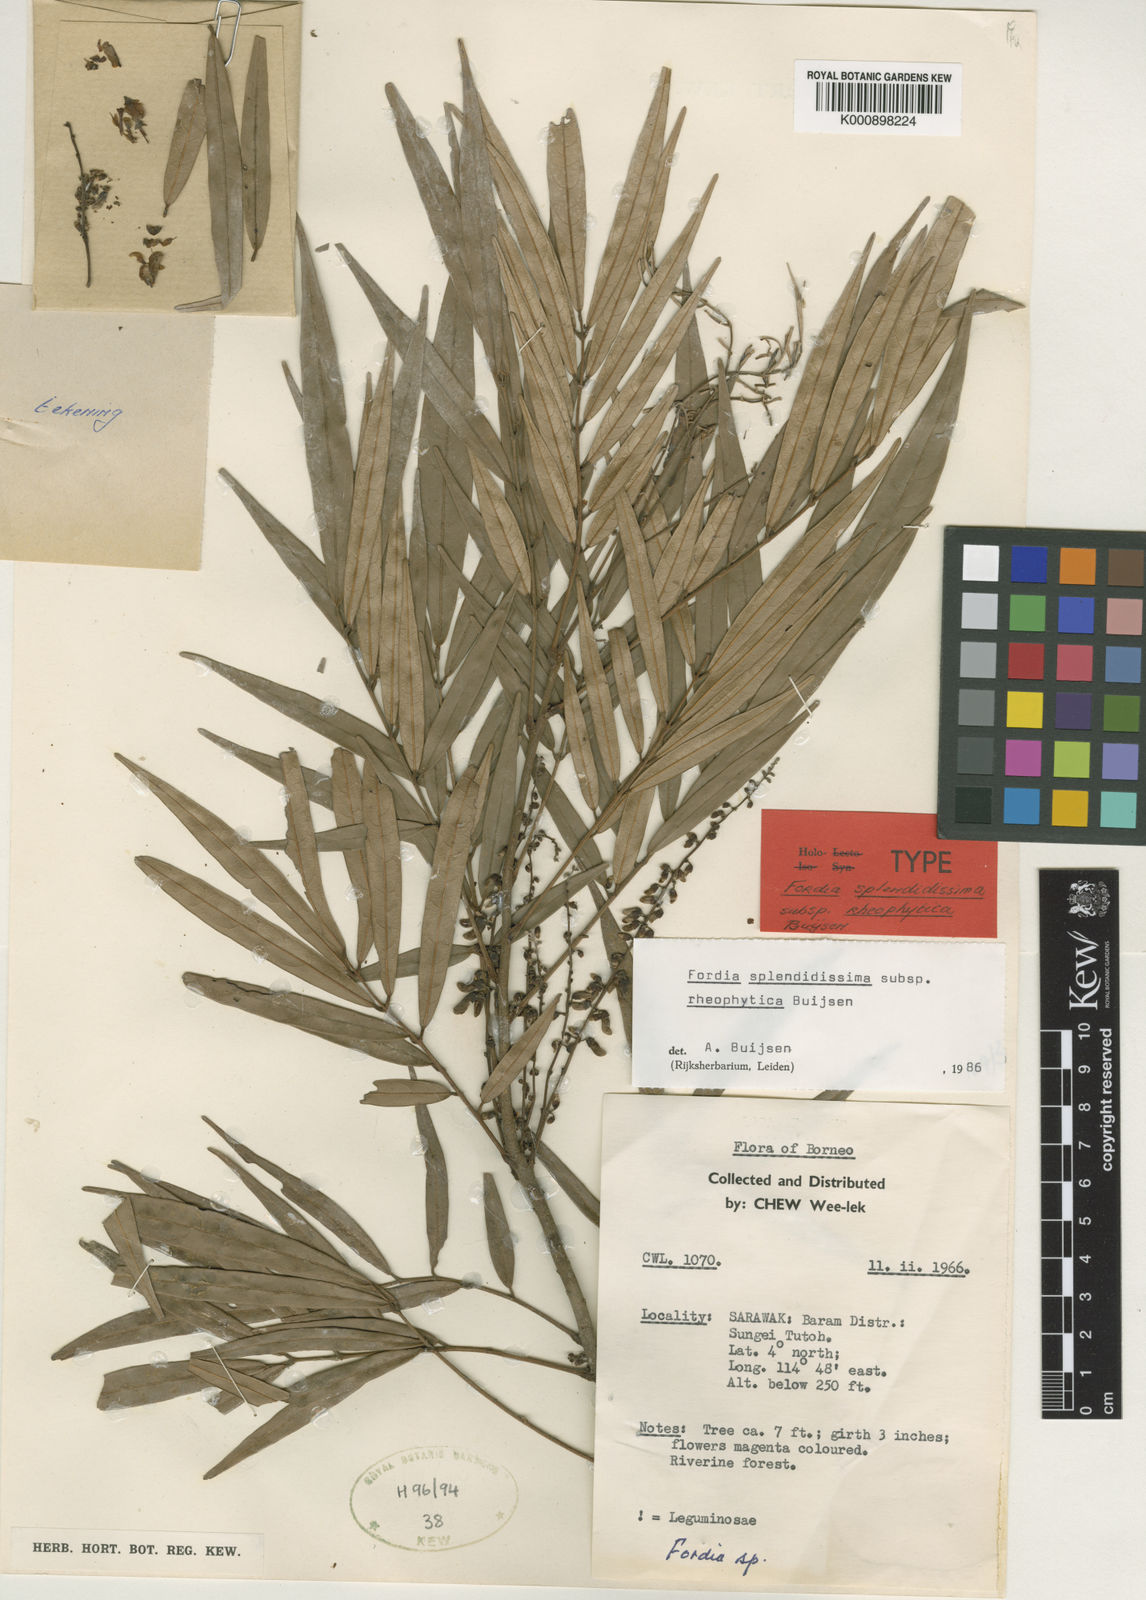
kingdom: Plantae
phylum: Tracheophyta
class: Magnoliopsida
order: Fabales
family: Fabaceae
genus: Fordia
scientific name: Fordia rheophytica
